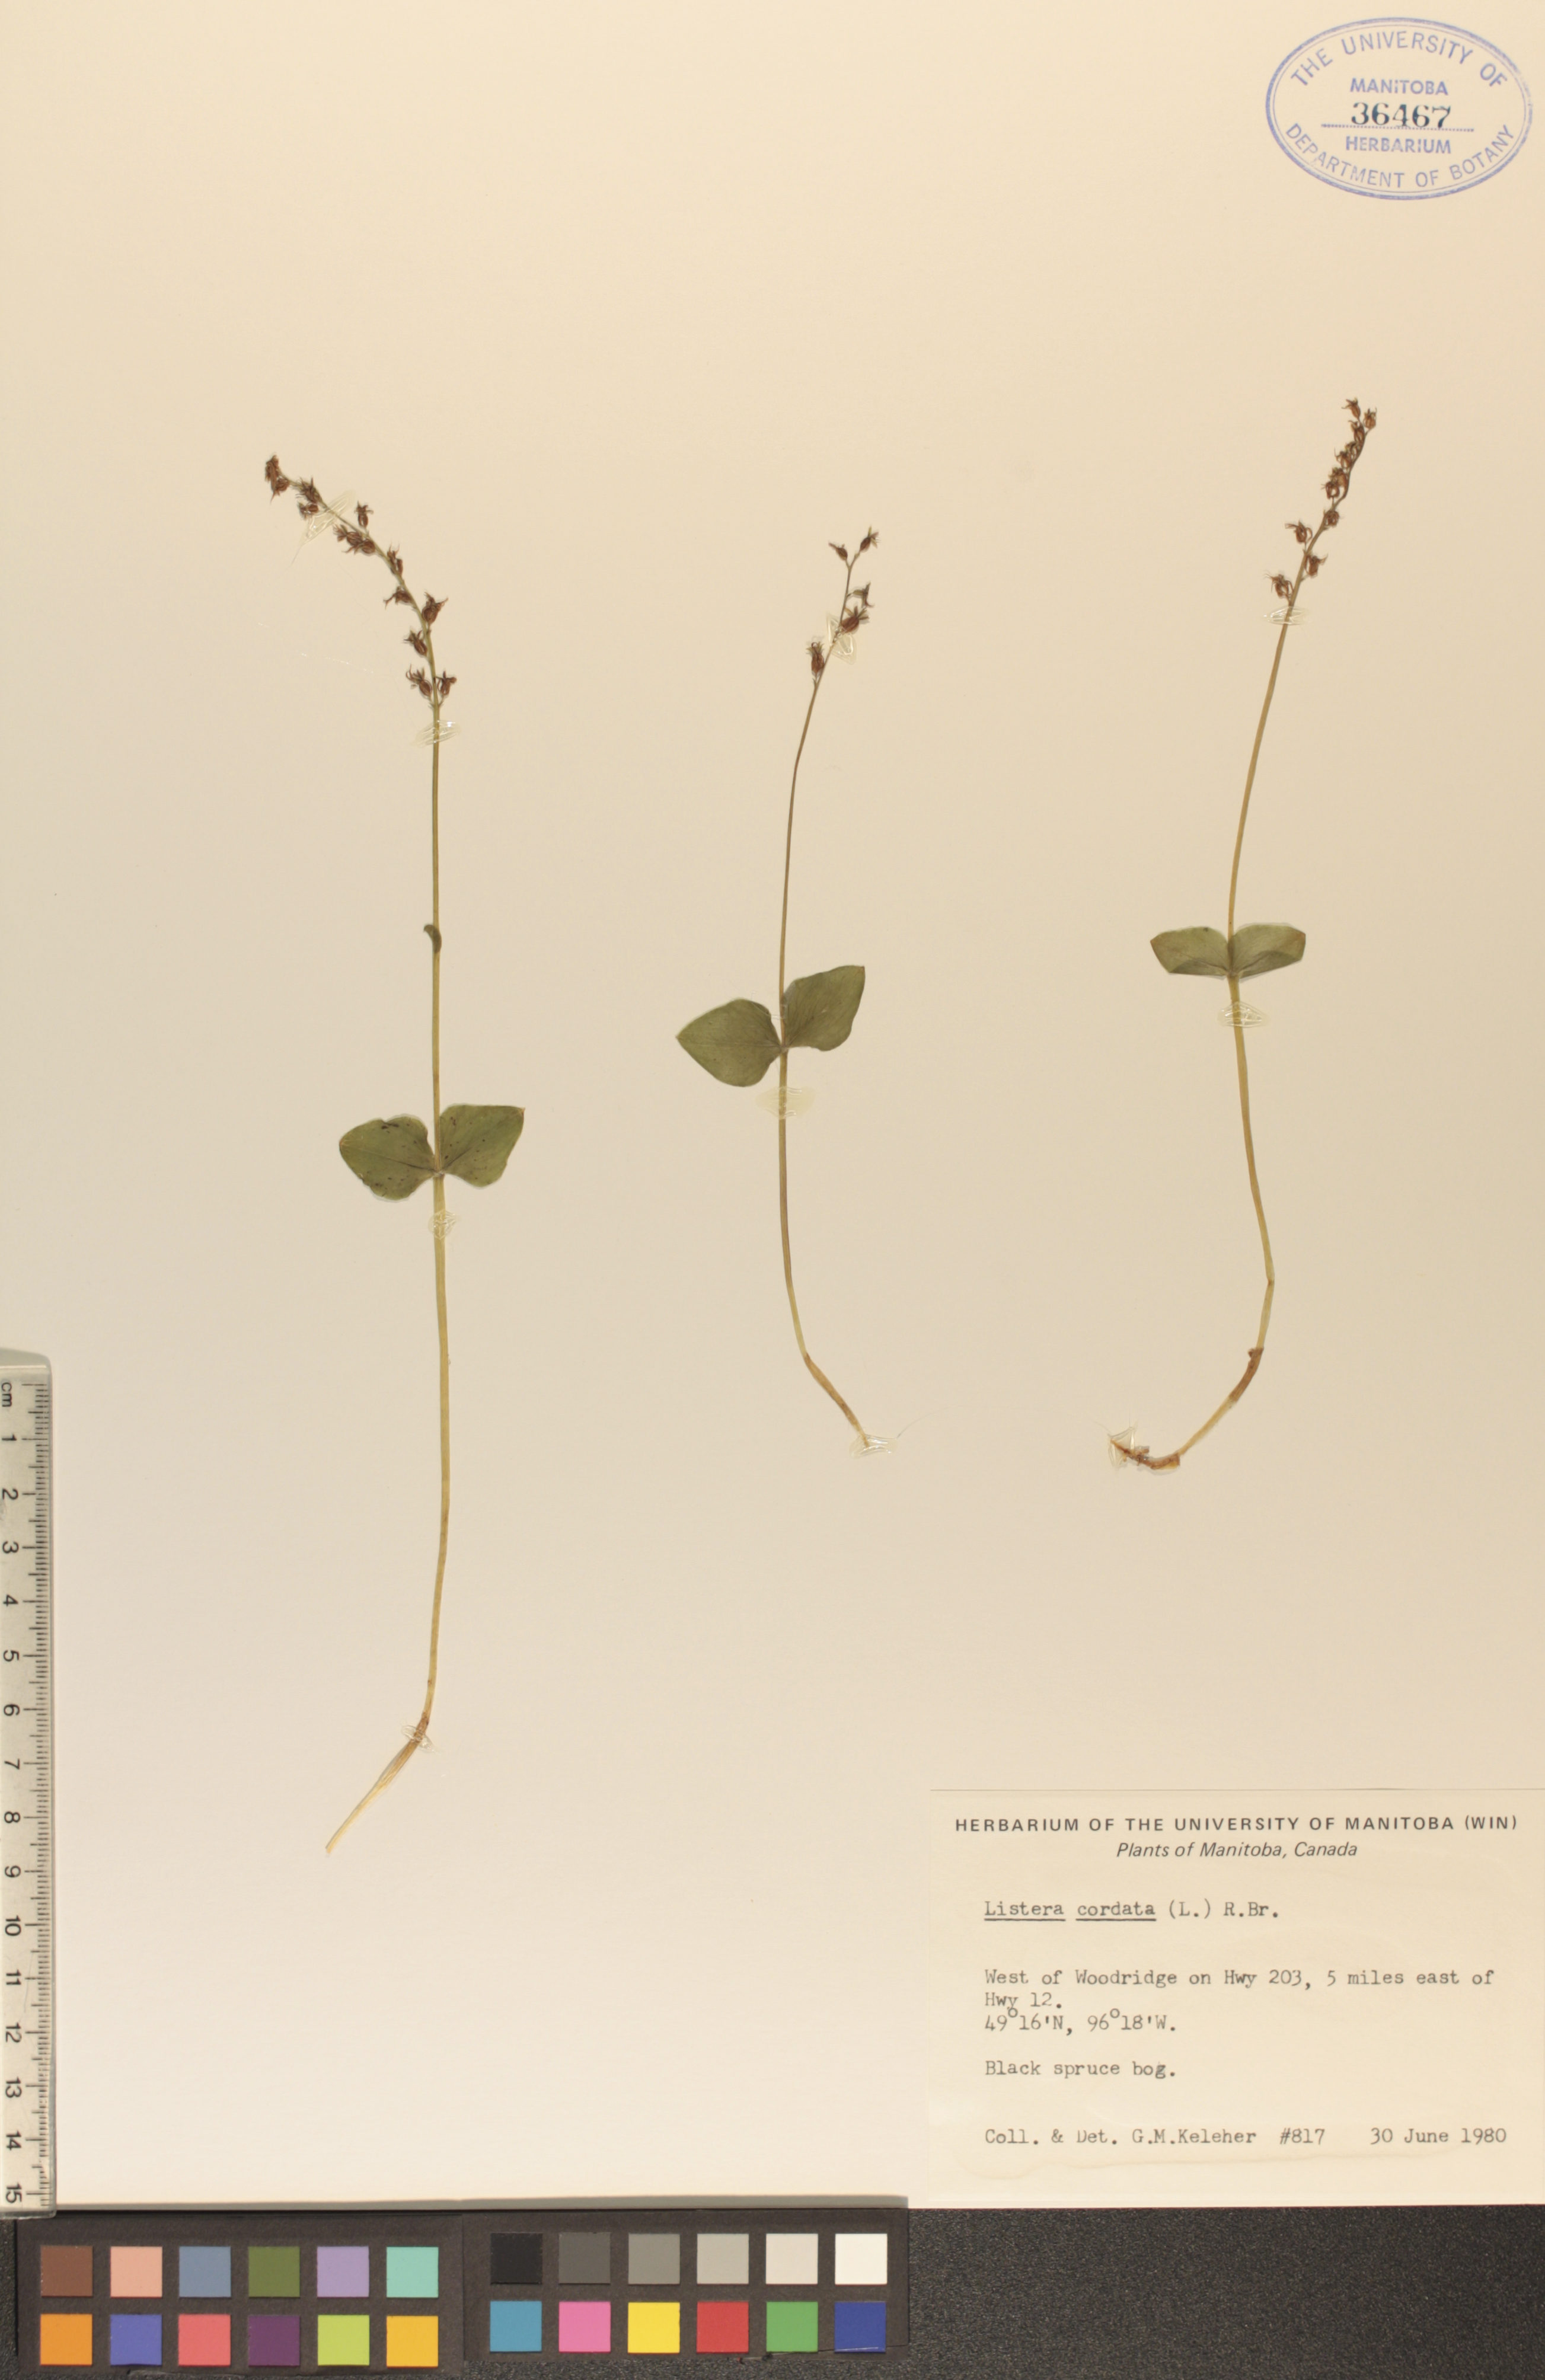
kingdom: Plantae
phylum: Tracheophyta
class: Liliopsida
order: Asparagales
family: Orchidaceae
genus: Neottia
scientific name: Neottia cordata
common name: Lesser twayblade
